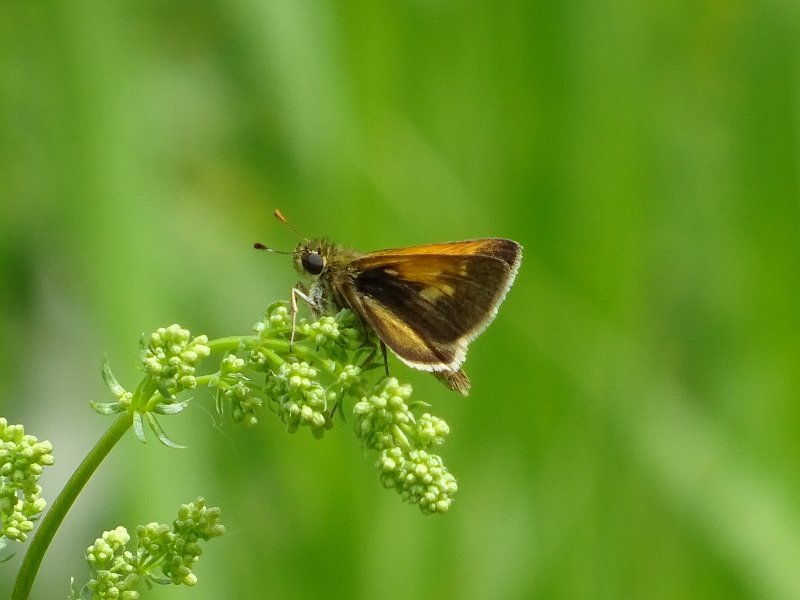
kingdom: Animalia
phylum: Arthropoda
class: Insecta
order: Lepidoptera
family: Hesperiidae
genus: Polites
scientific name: Polites themistocles
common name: Tawny-edged Skipper
